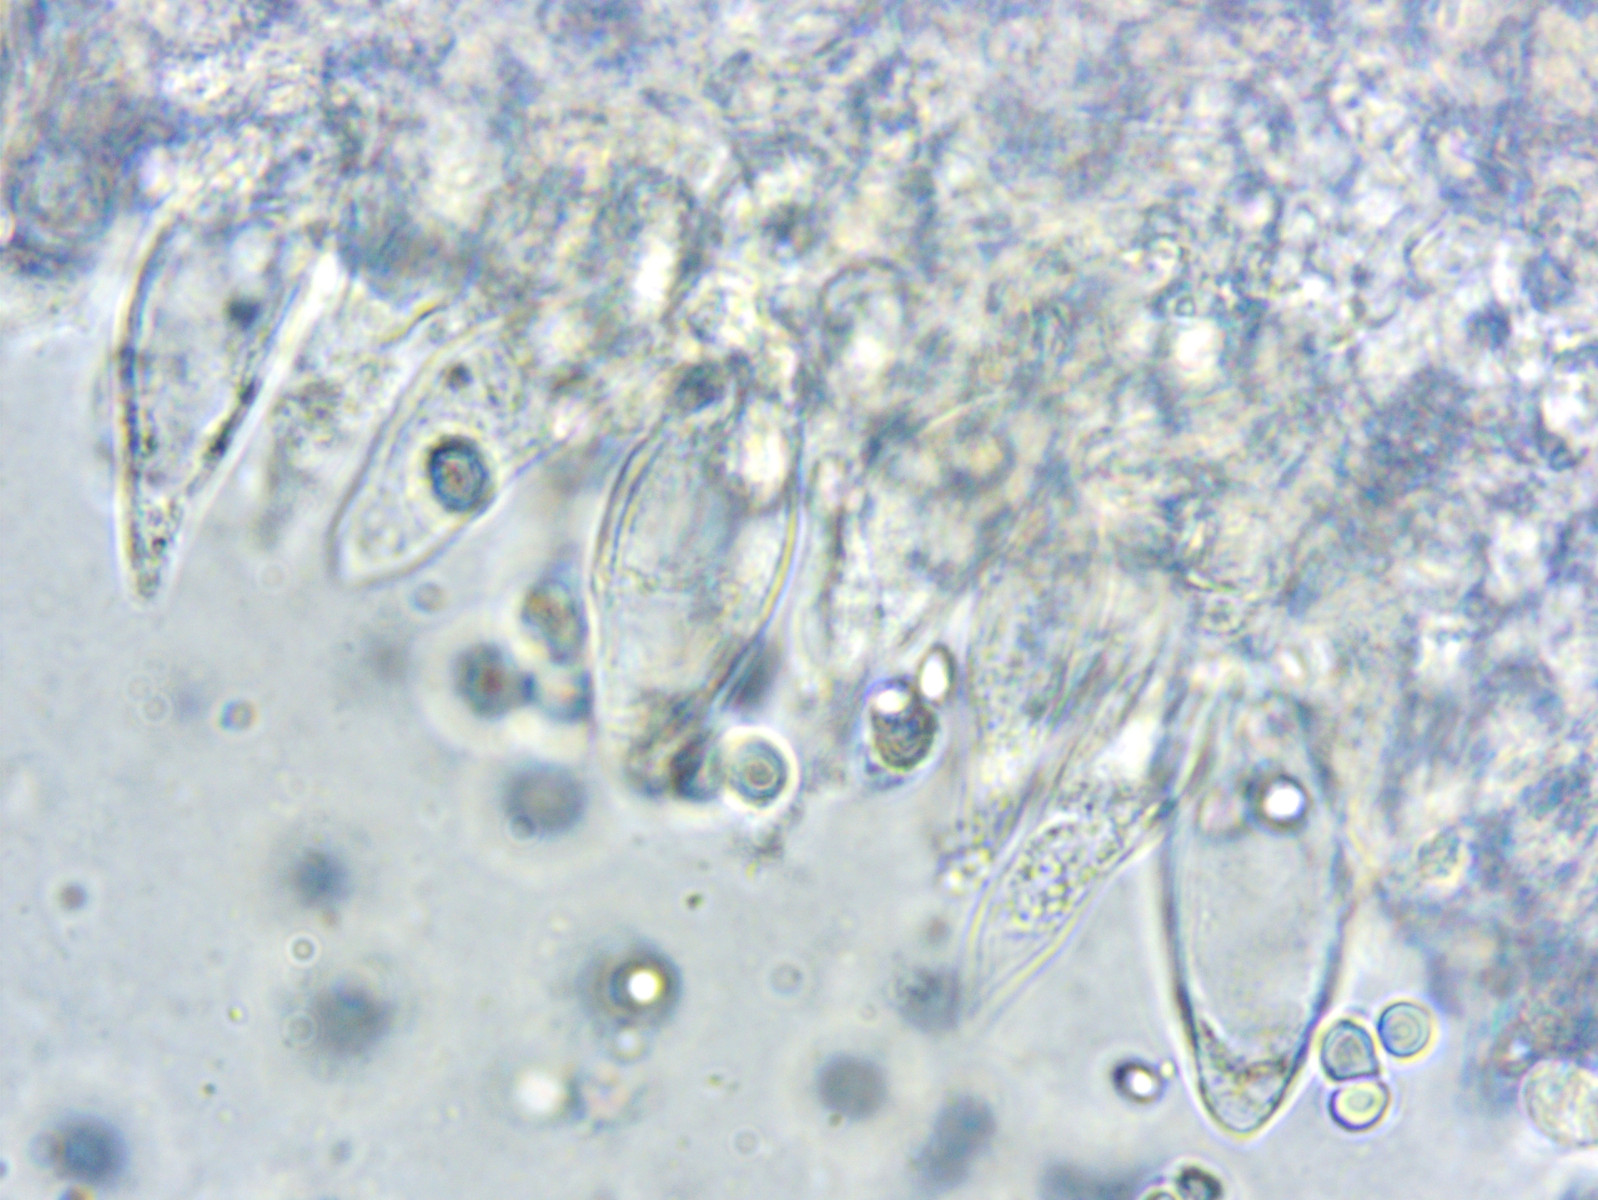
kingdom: Fungi
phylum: Basidiomycota
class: Agaricomycetes
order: Agaricales
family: Mycenaceae
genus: Mycena
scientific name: Mycena leptocephala
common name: klor-huesvamp
